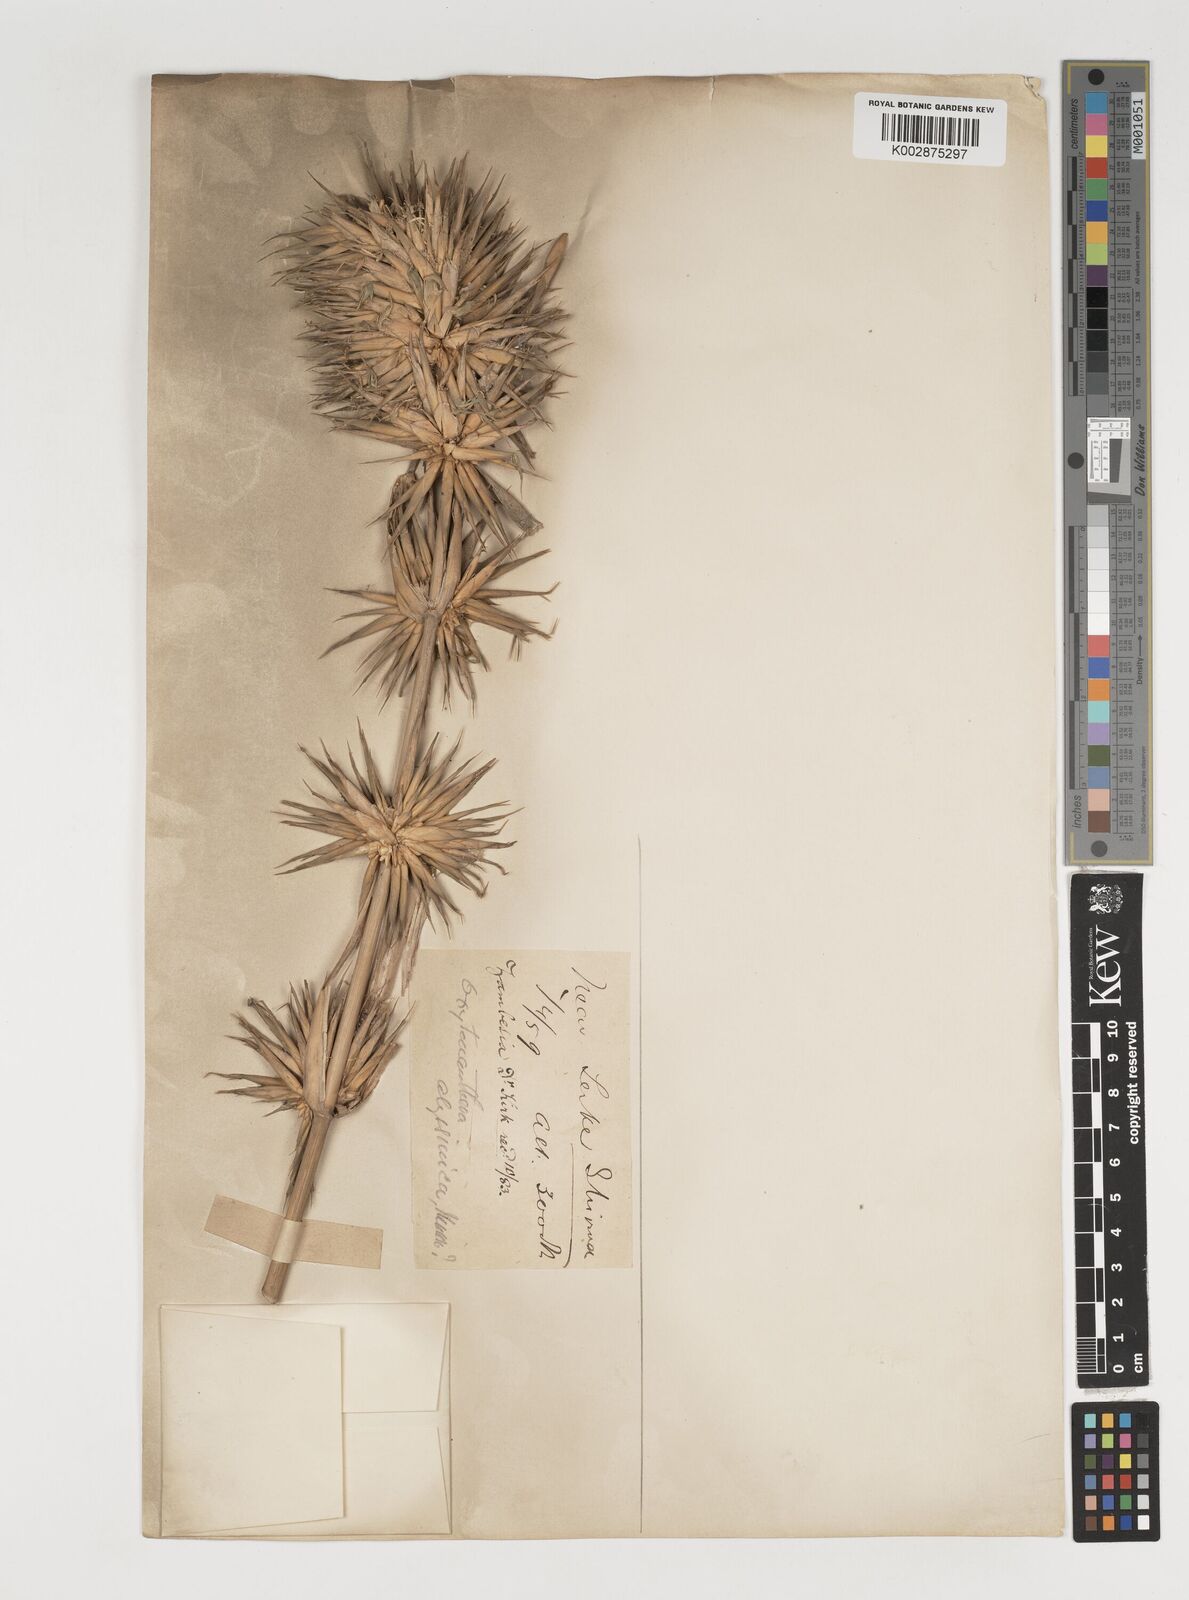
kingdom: Plantae
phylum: Tracheophyta
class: Liliopsida
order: Poales
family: Poaceae
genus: Oxytenanthera
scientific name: Oxytenanthera abyssinica
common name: Wine bamboo
